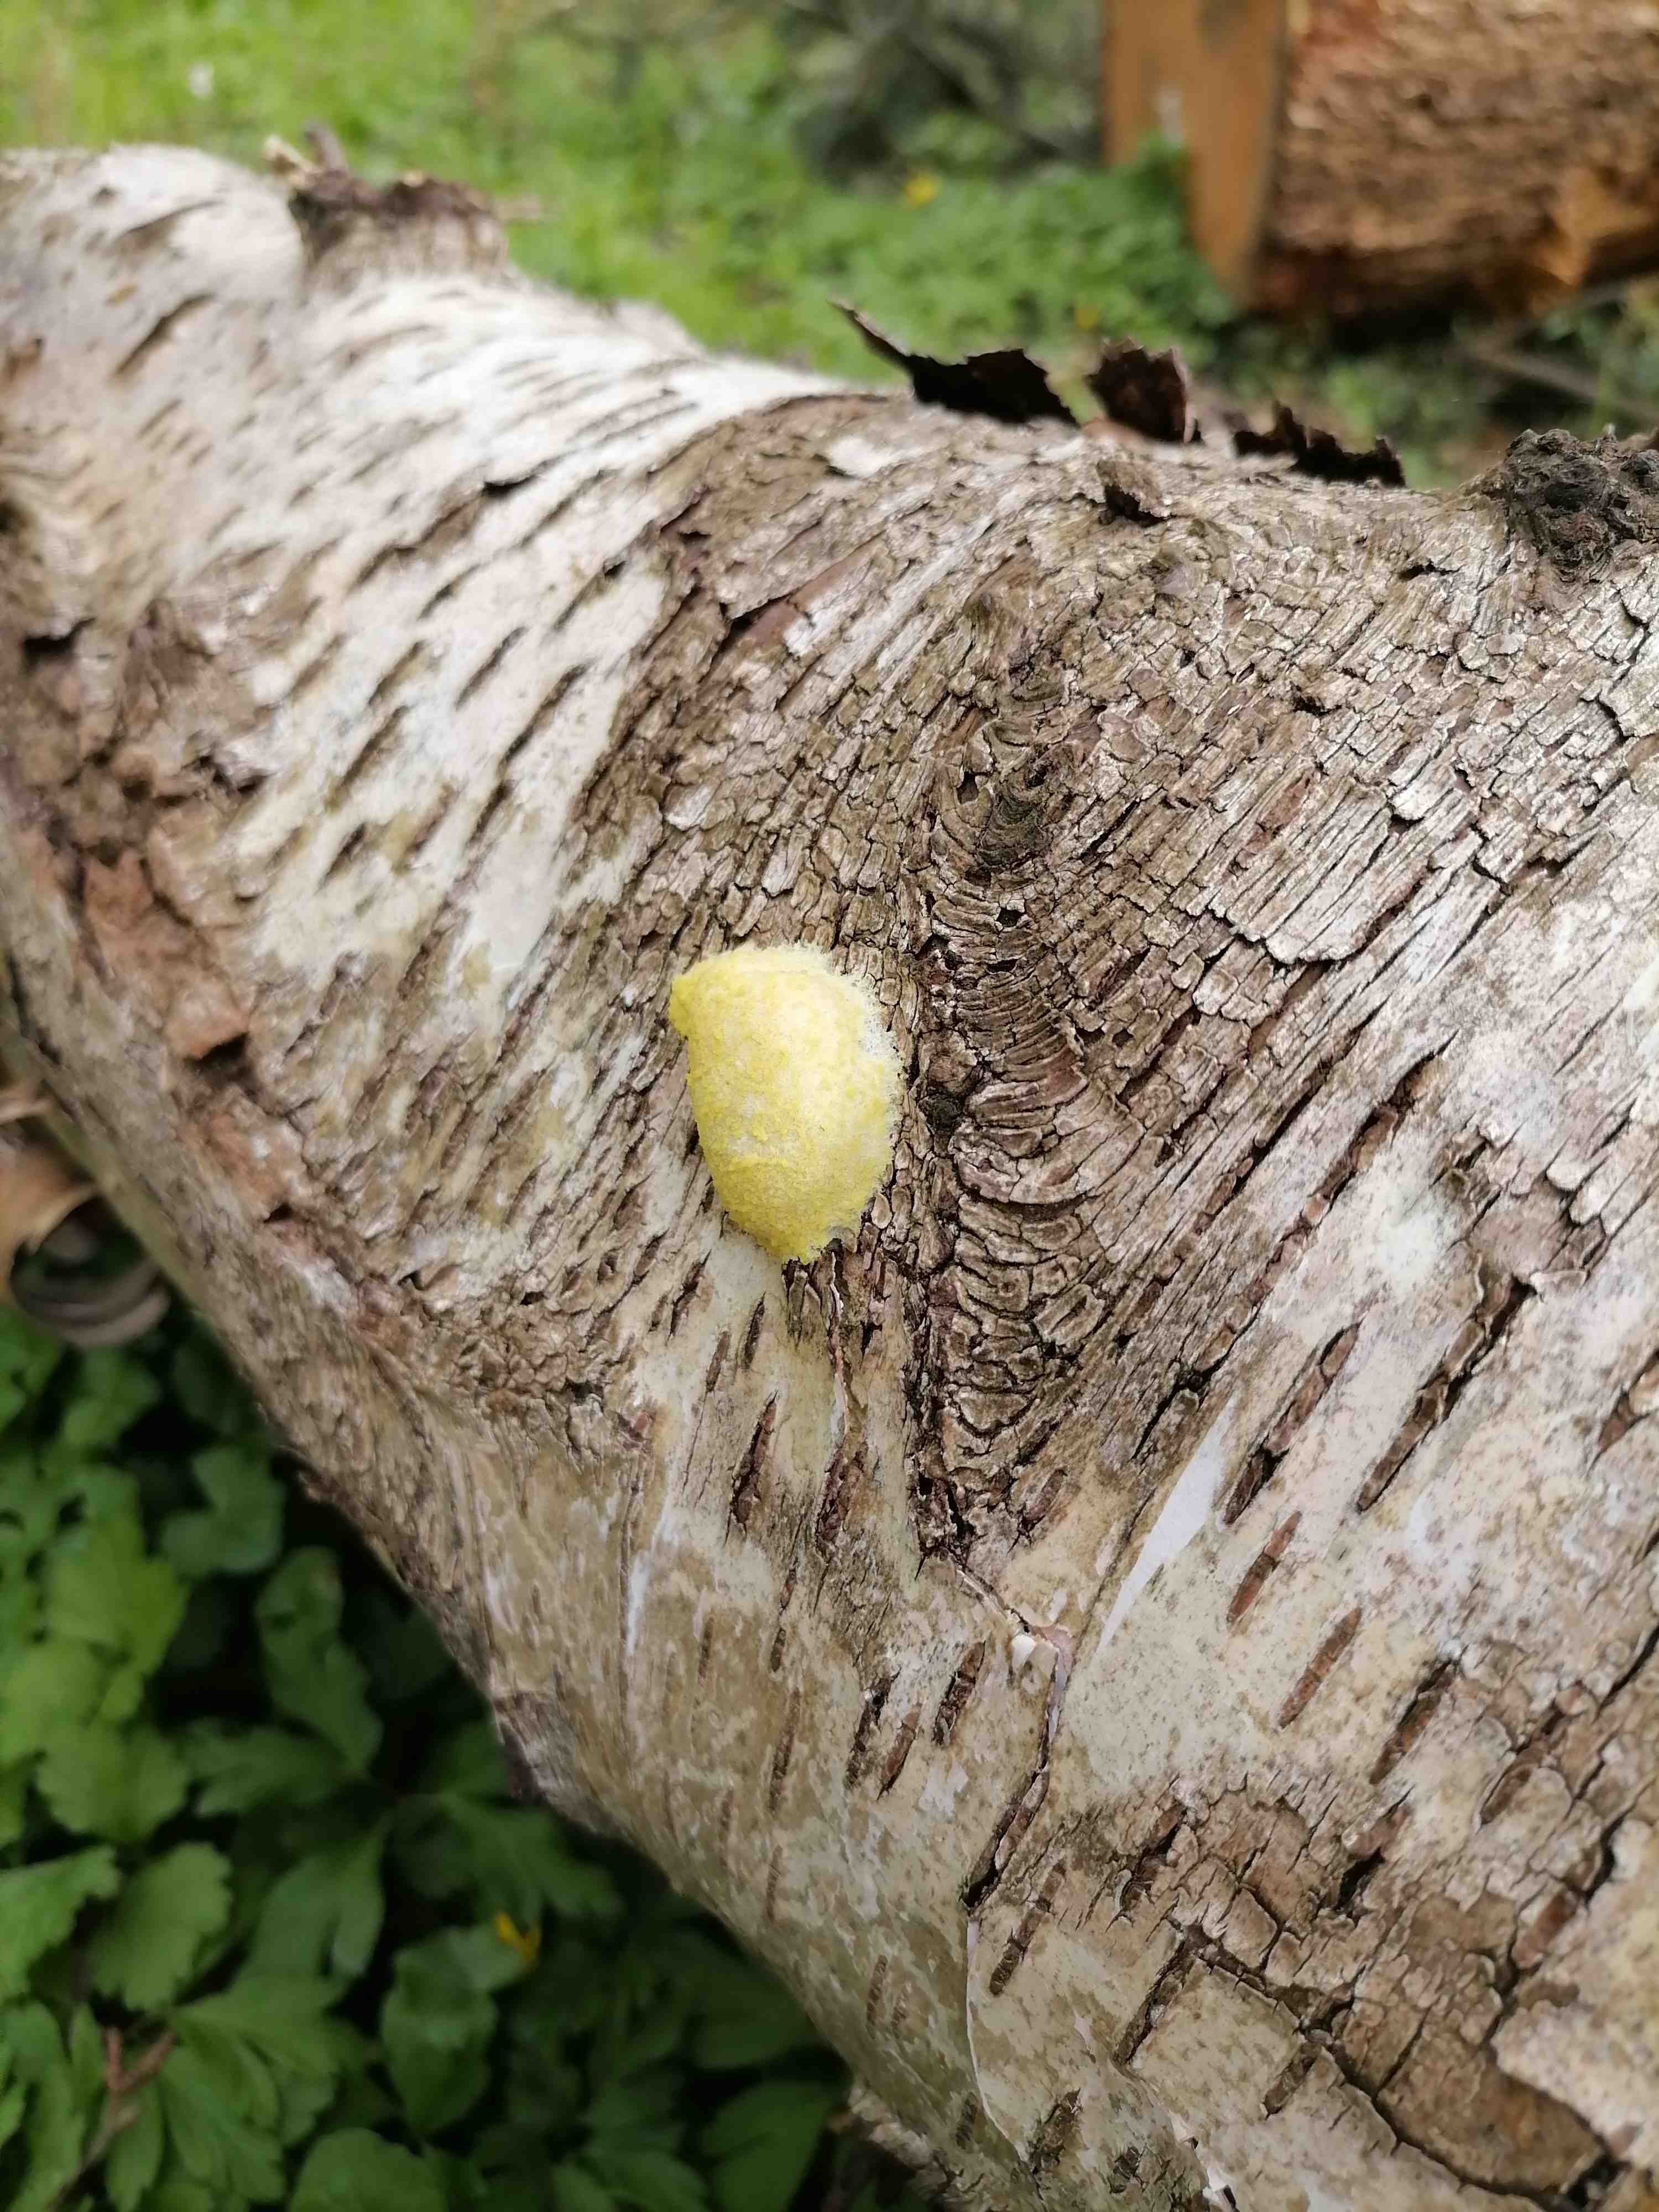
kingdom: Protozoa
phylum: Mycetozoa
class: Myxomycetes
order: Cribrariales
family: Tubiferaceae
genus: Reticularia
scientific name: Reticularia lycoperdon
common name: skinnende støvpude
